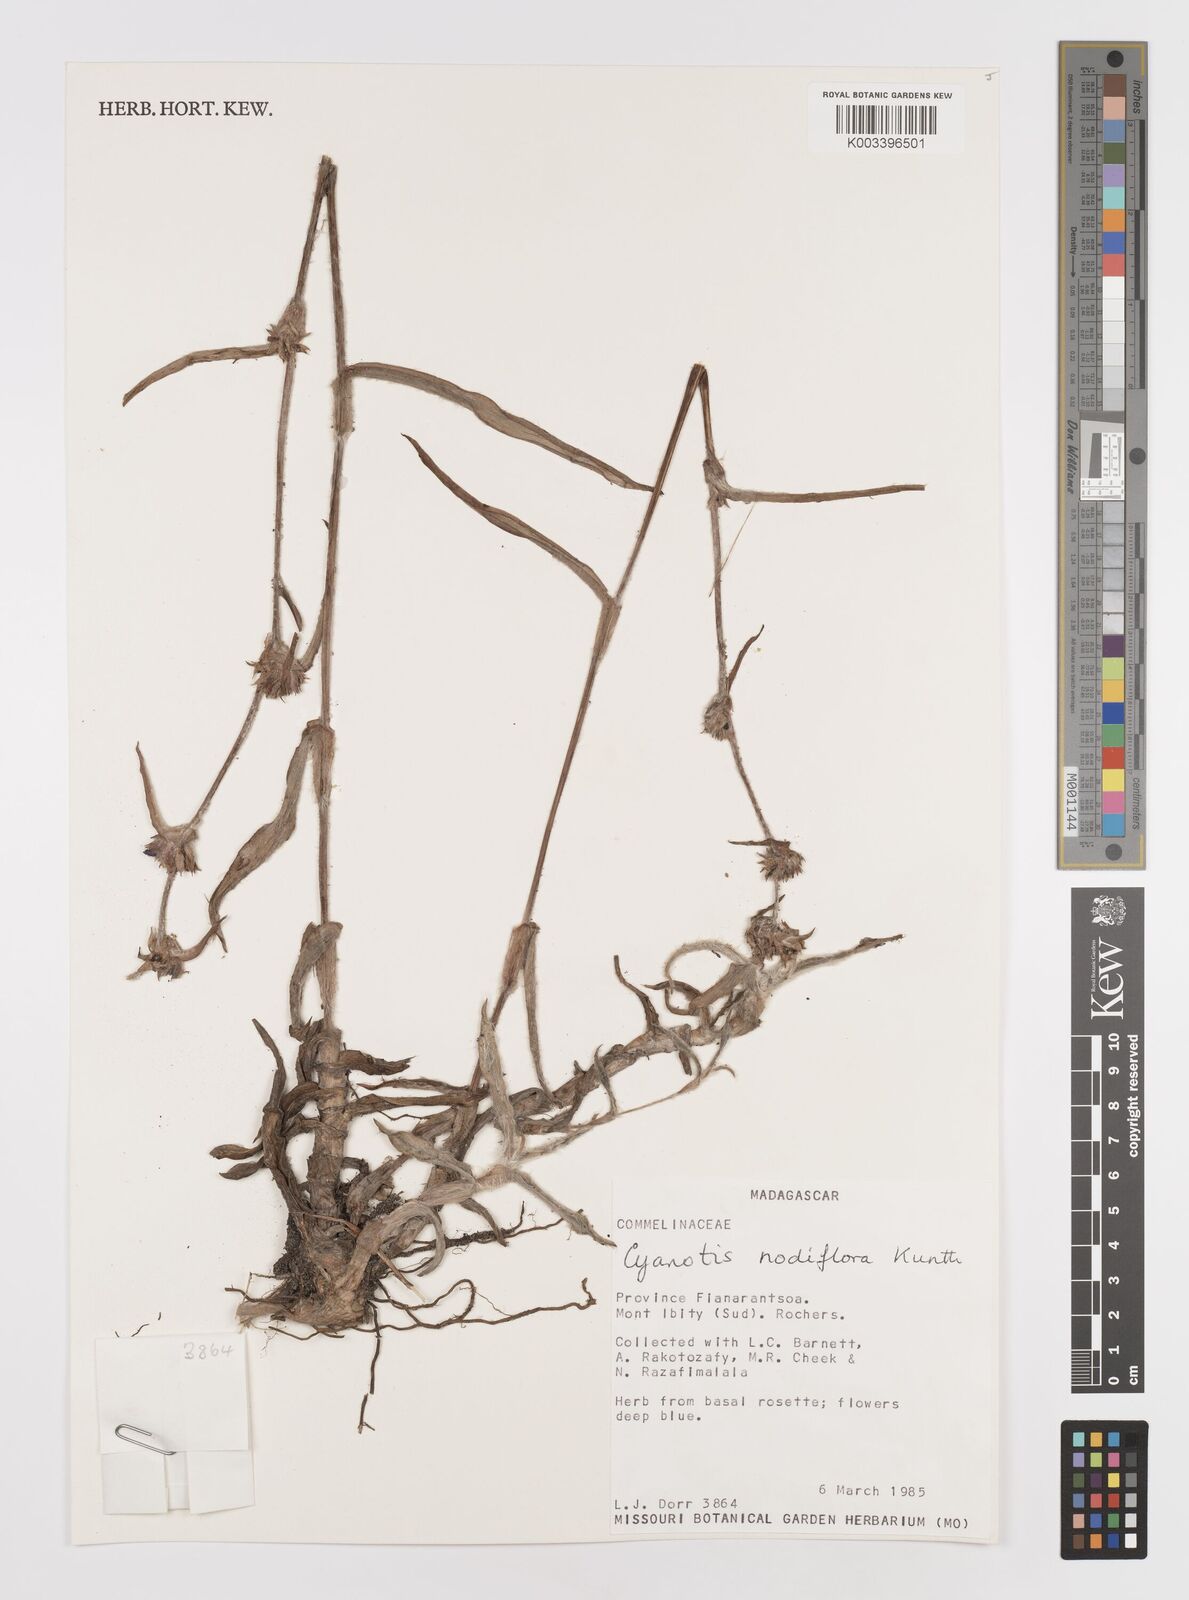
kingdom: Plantae
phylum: Tracheophyta
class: Liliopsida
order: Commelinales
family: Commelinaceae
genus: Cyanotis
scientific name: Cyanotis speciosa
